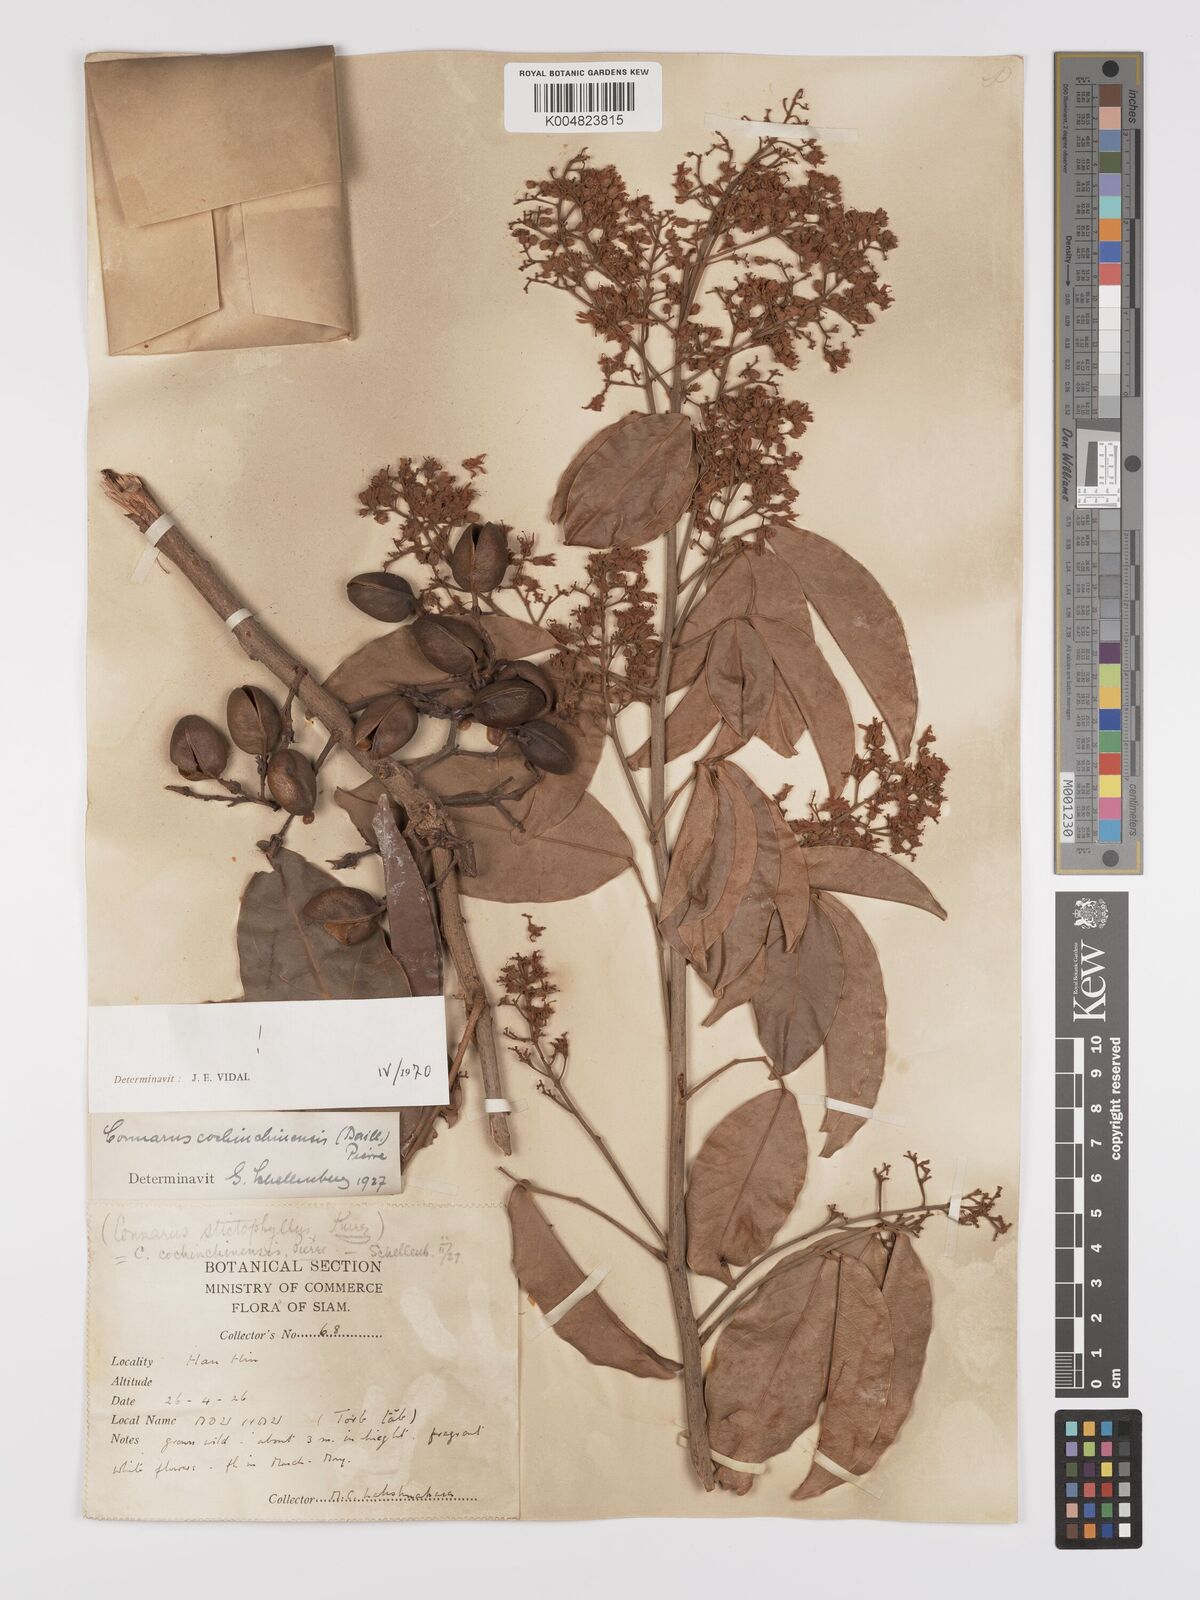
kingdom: Plantae
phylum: Tracheophyta
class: Magnoliopsida
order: Oxalidales
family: Connaraceae
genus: Connarus
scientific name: Connarus cochinchinensis
